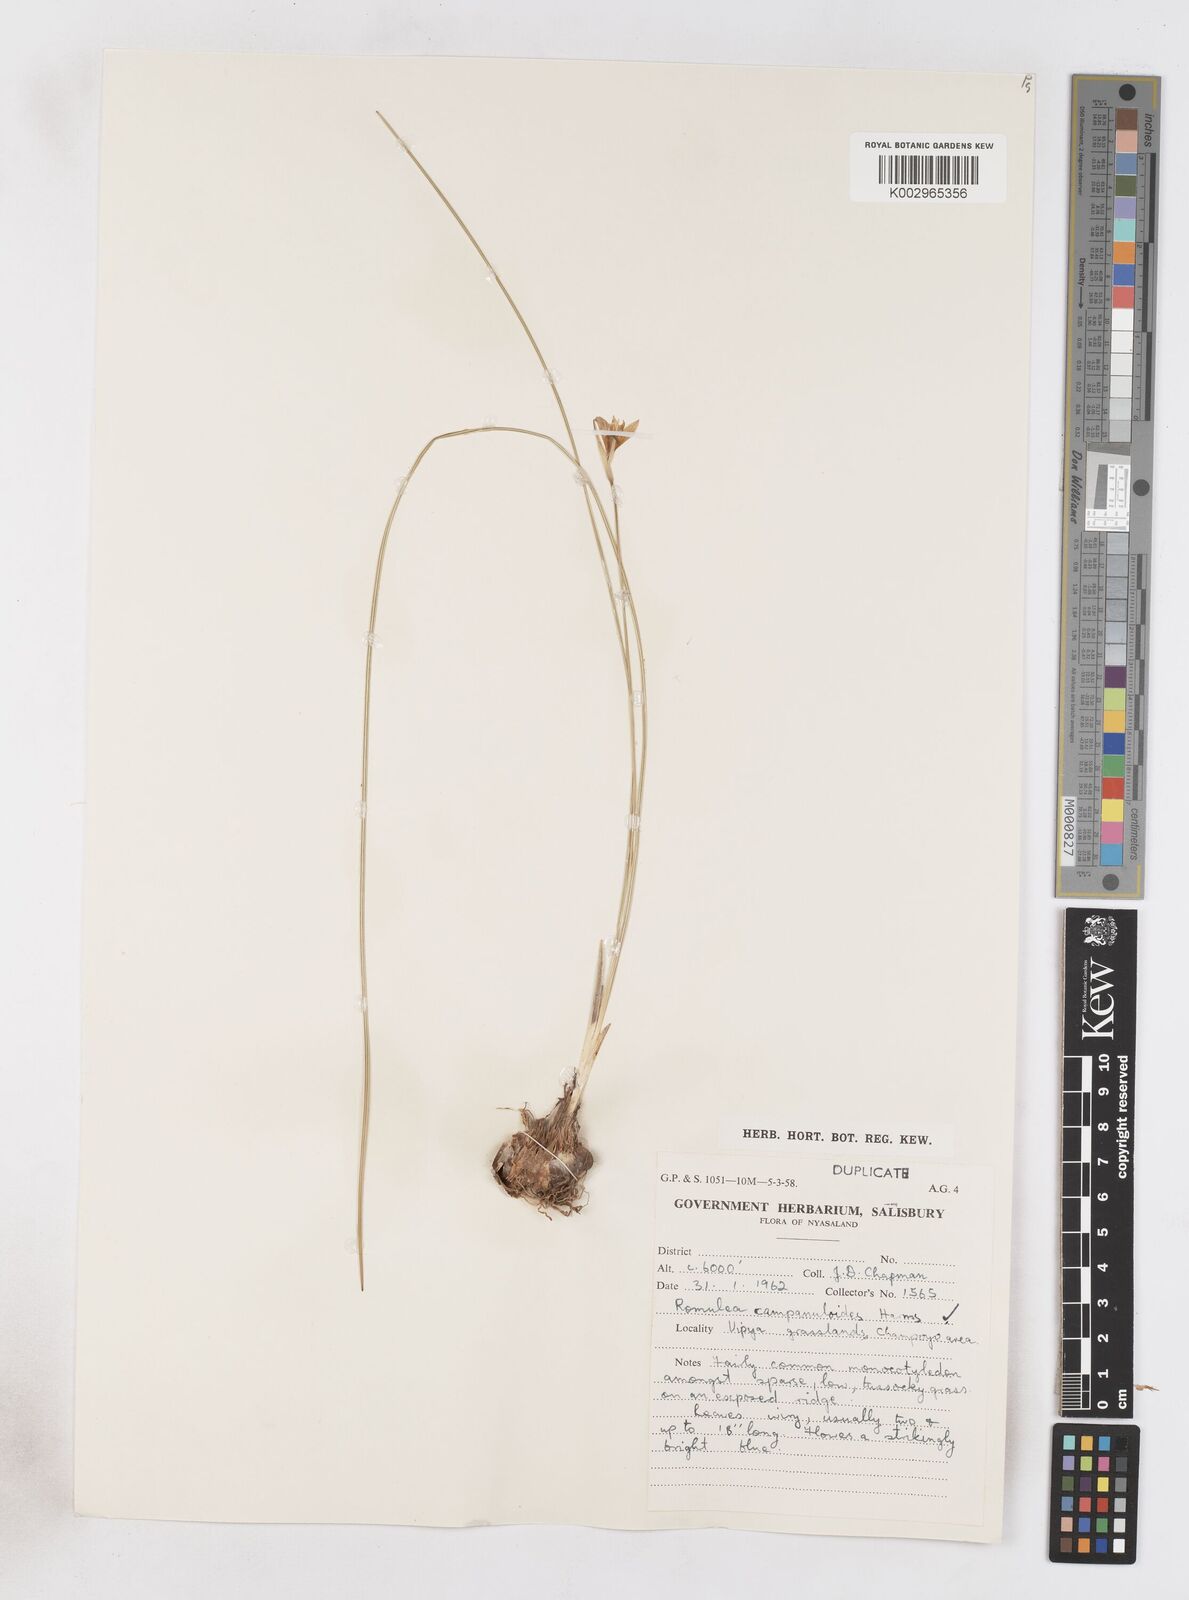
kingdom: Plantae
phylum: Tracheophyta
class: Liliopsida
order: Asparagales
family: Iridaceae
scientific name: Iridaceae
